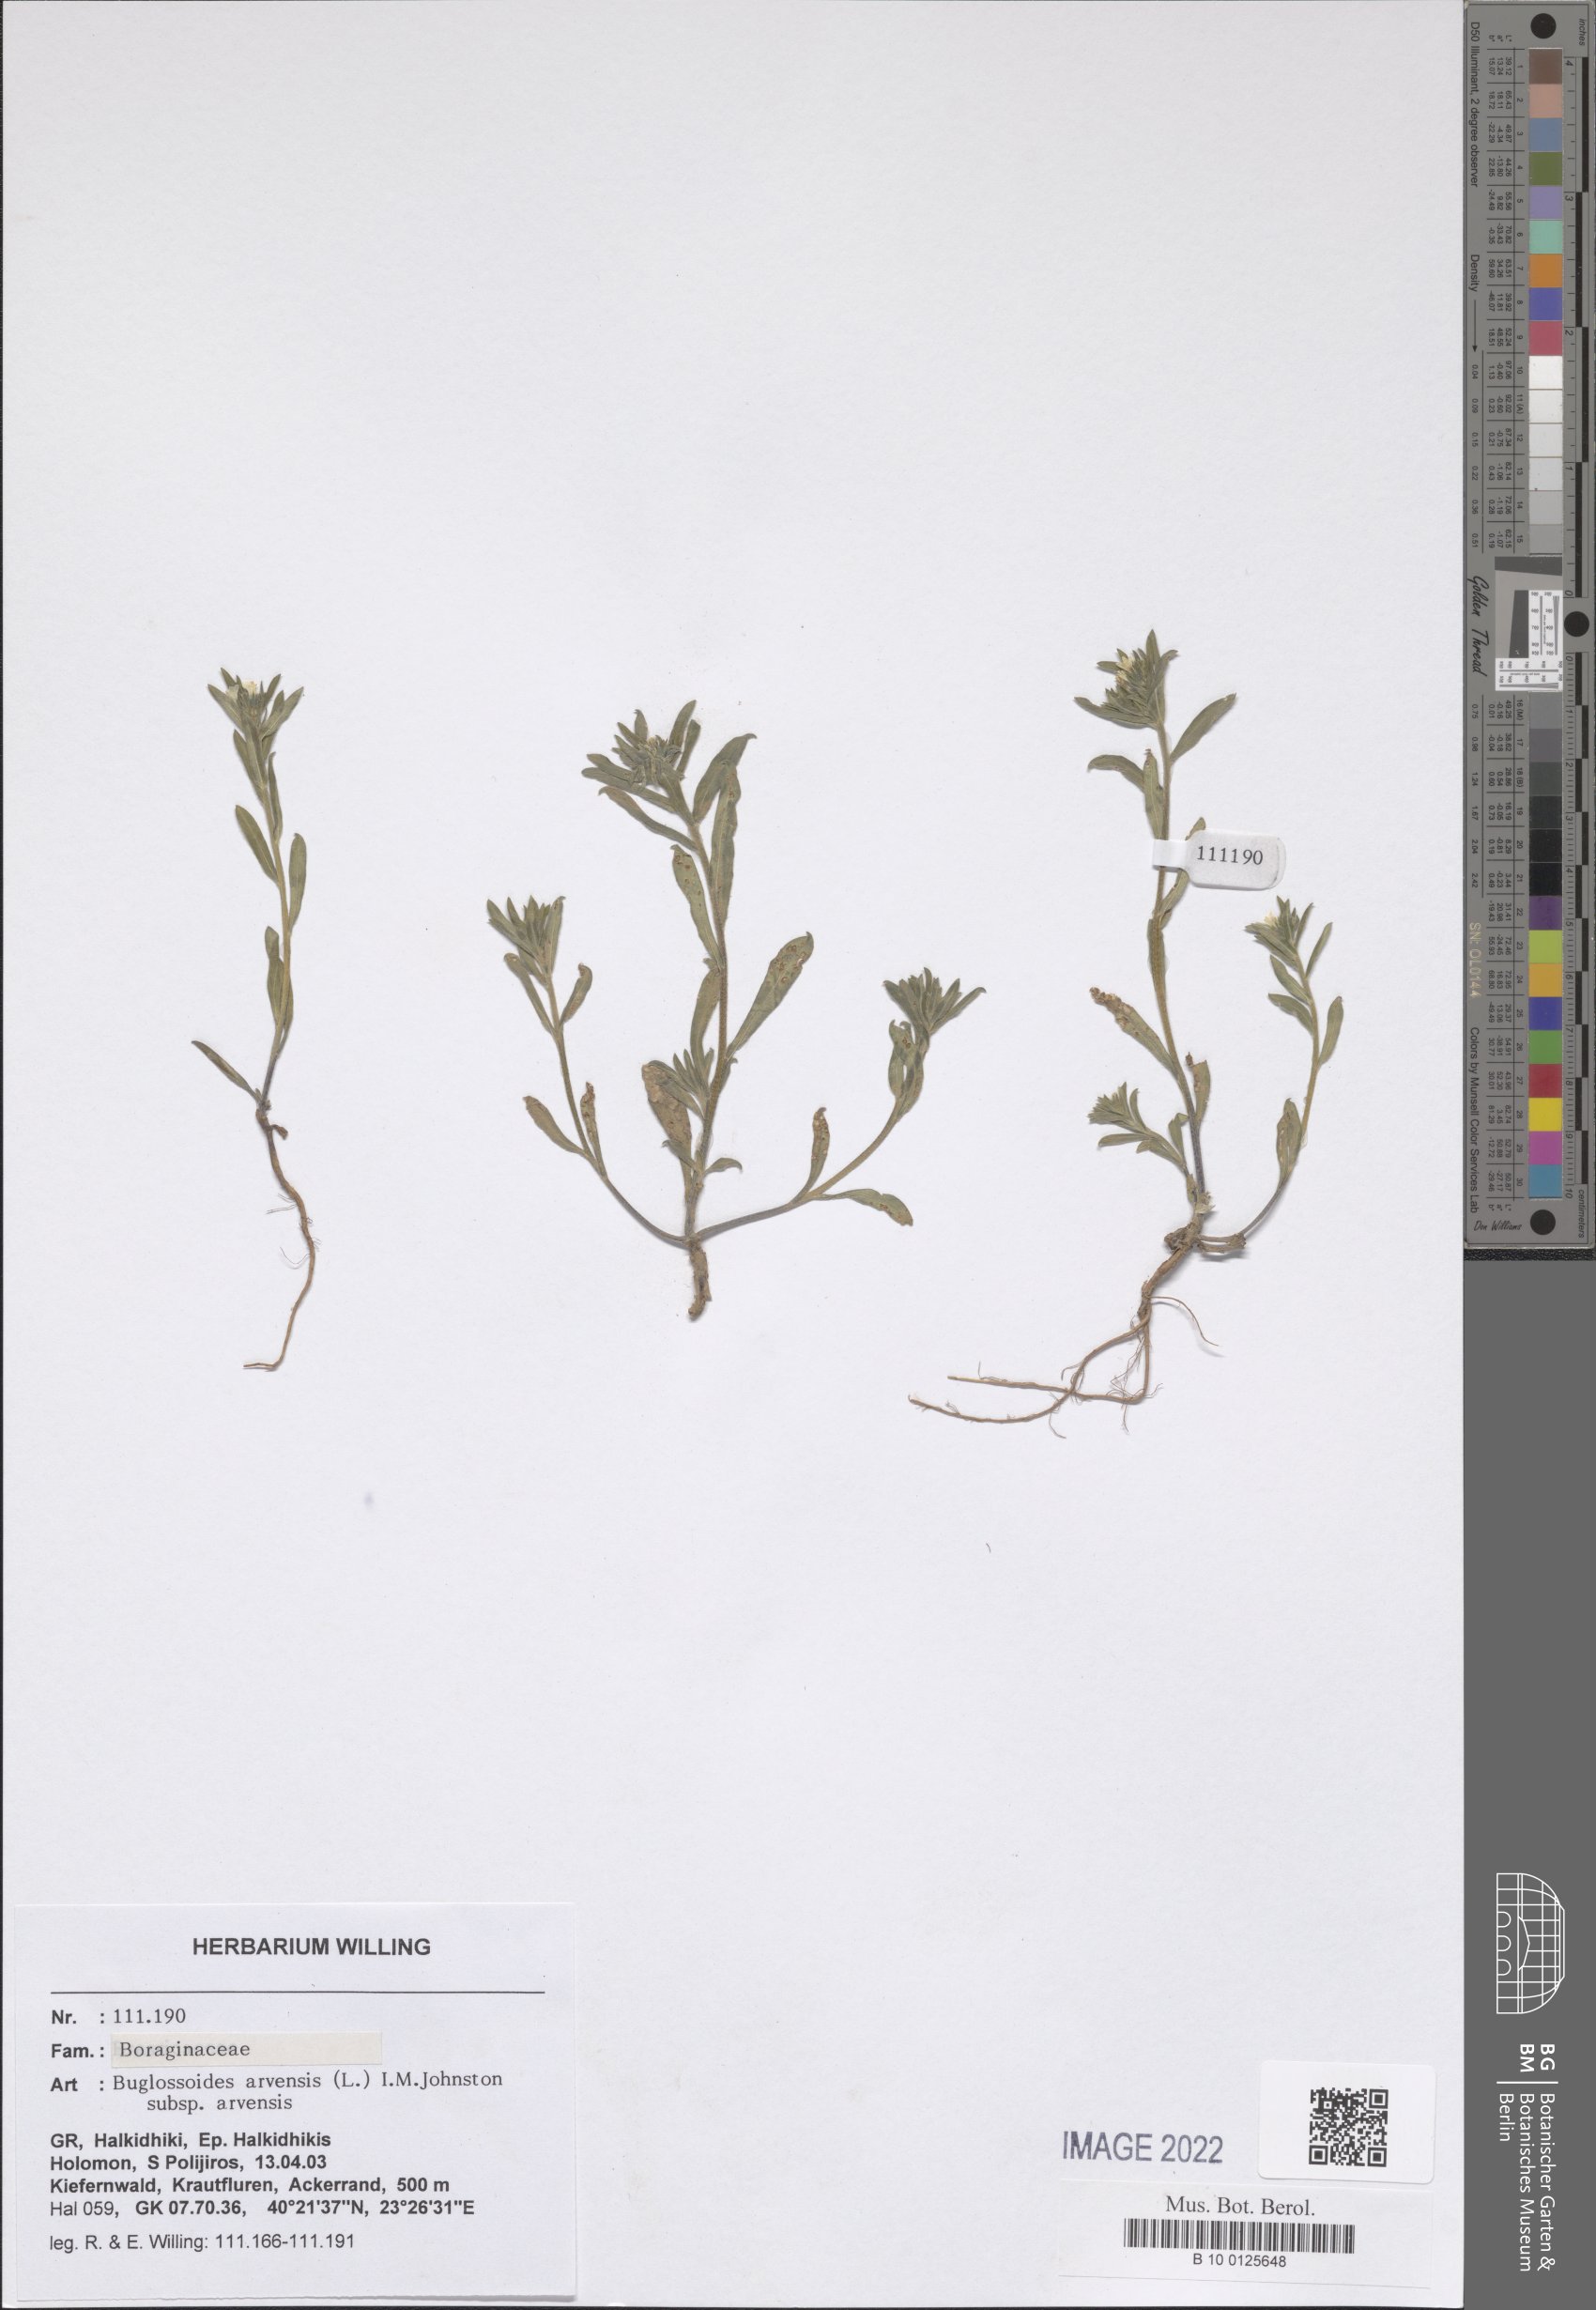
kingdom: Plantae
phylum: Tracheophyta
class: Magnoliopsida
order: Boraginales
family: Boraginaceae
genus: Buglossoides
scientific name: Buglossoides arvensis
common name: Corn gromwell
